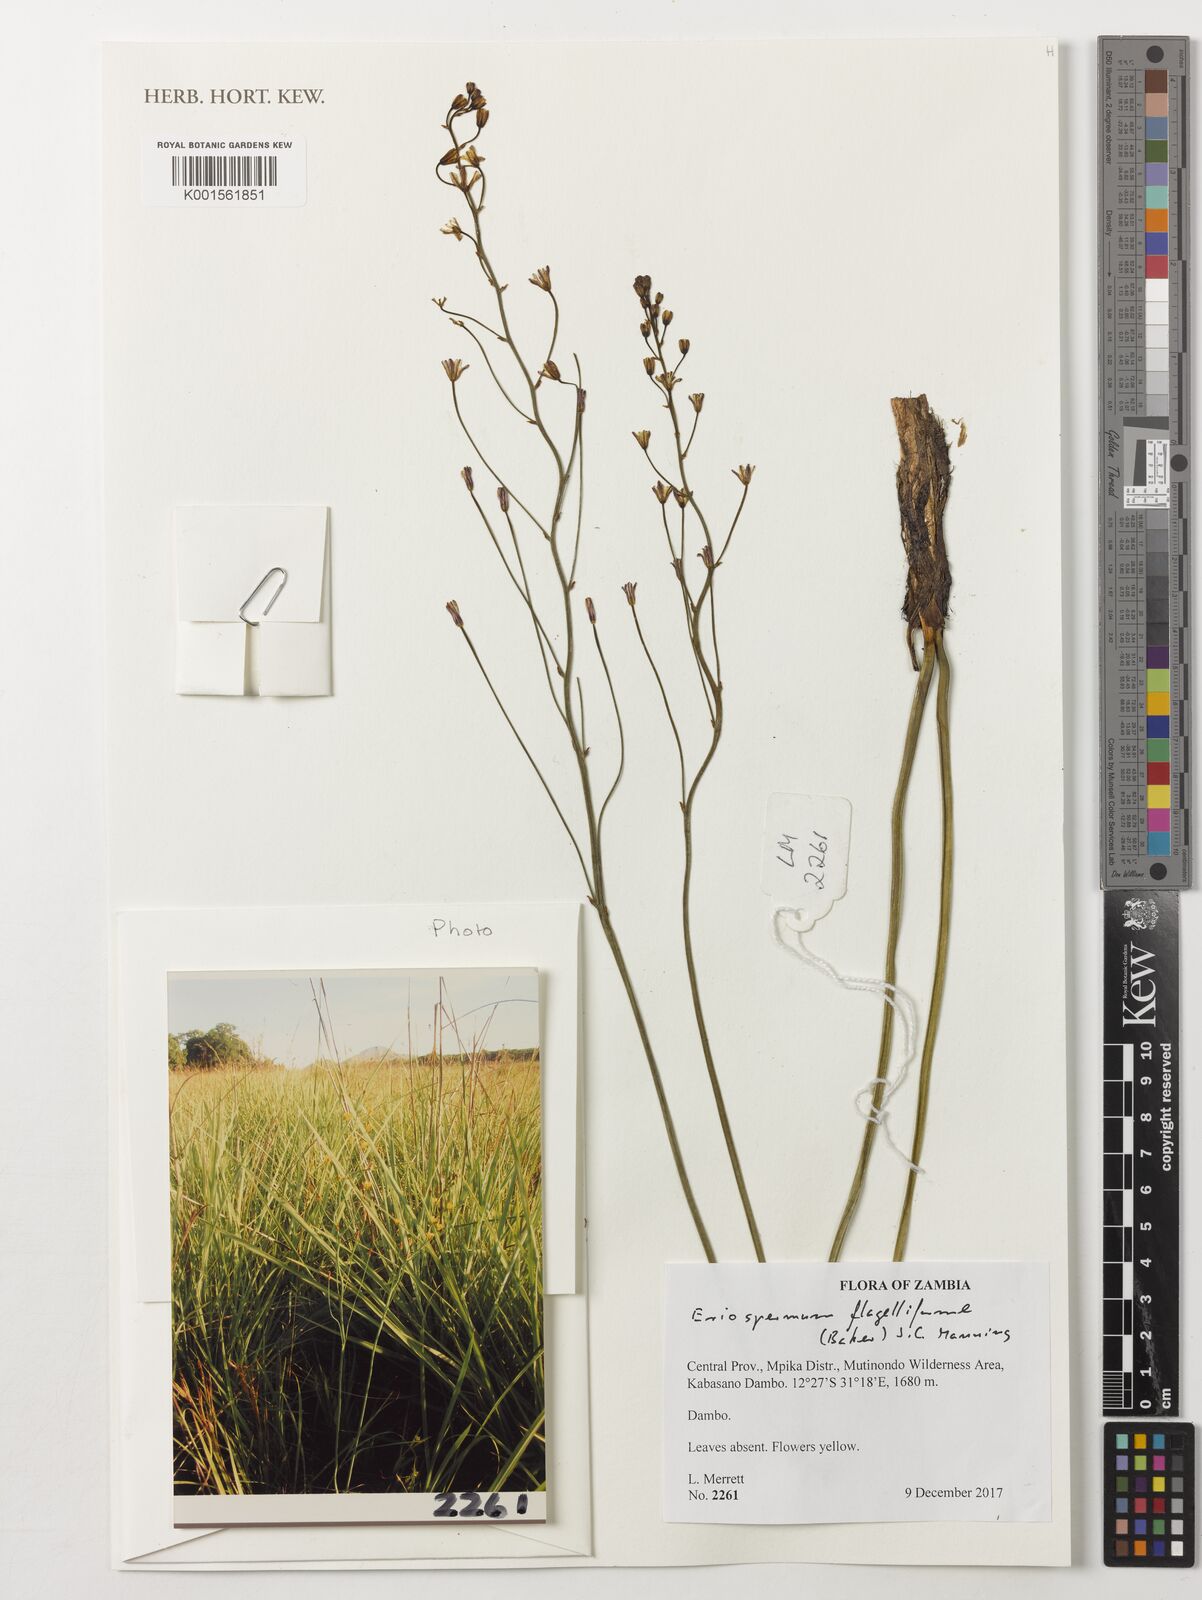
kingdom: Plantae
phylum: Tracheophyta
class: Liliopsida
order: Asparagales
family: Asparagaceae
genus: Eriospermum
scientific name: Eriospermum abyssinicum
